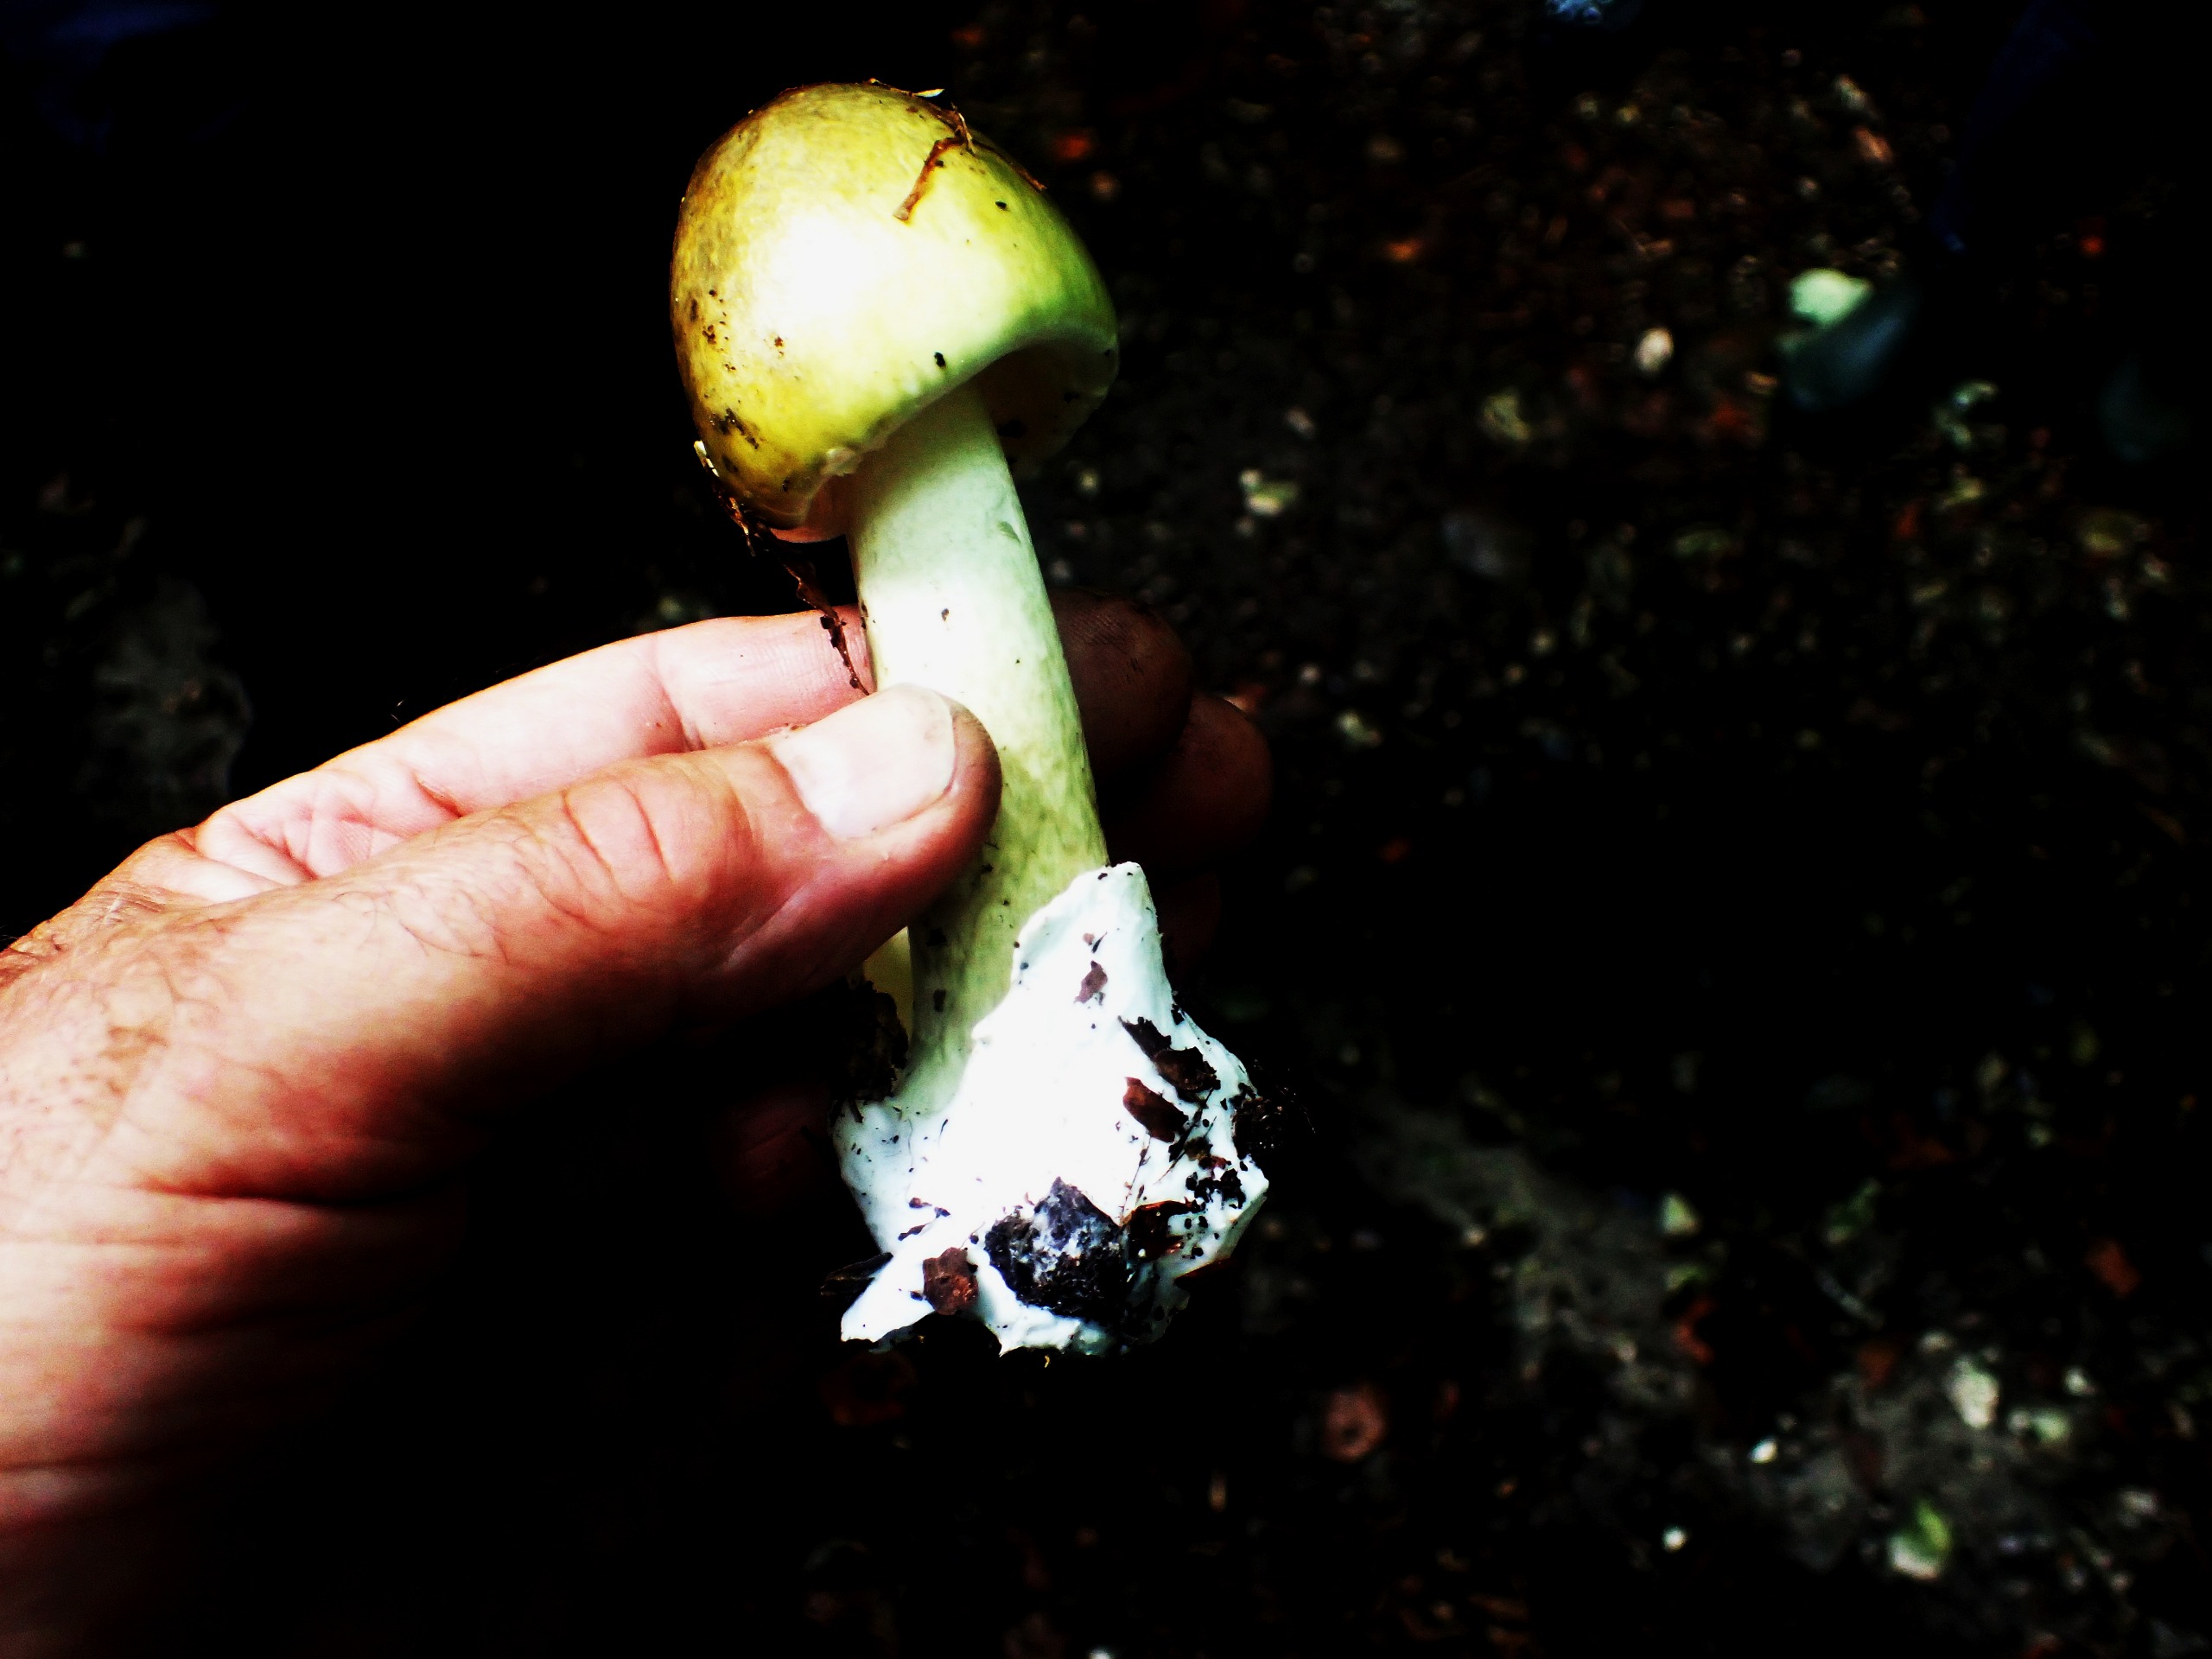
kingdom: Fungi
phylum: Basidiomycota
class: Agaricomycetes
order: Agaricales
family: Amanitaceae
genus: Amanita
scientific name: Amanita phalloides
